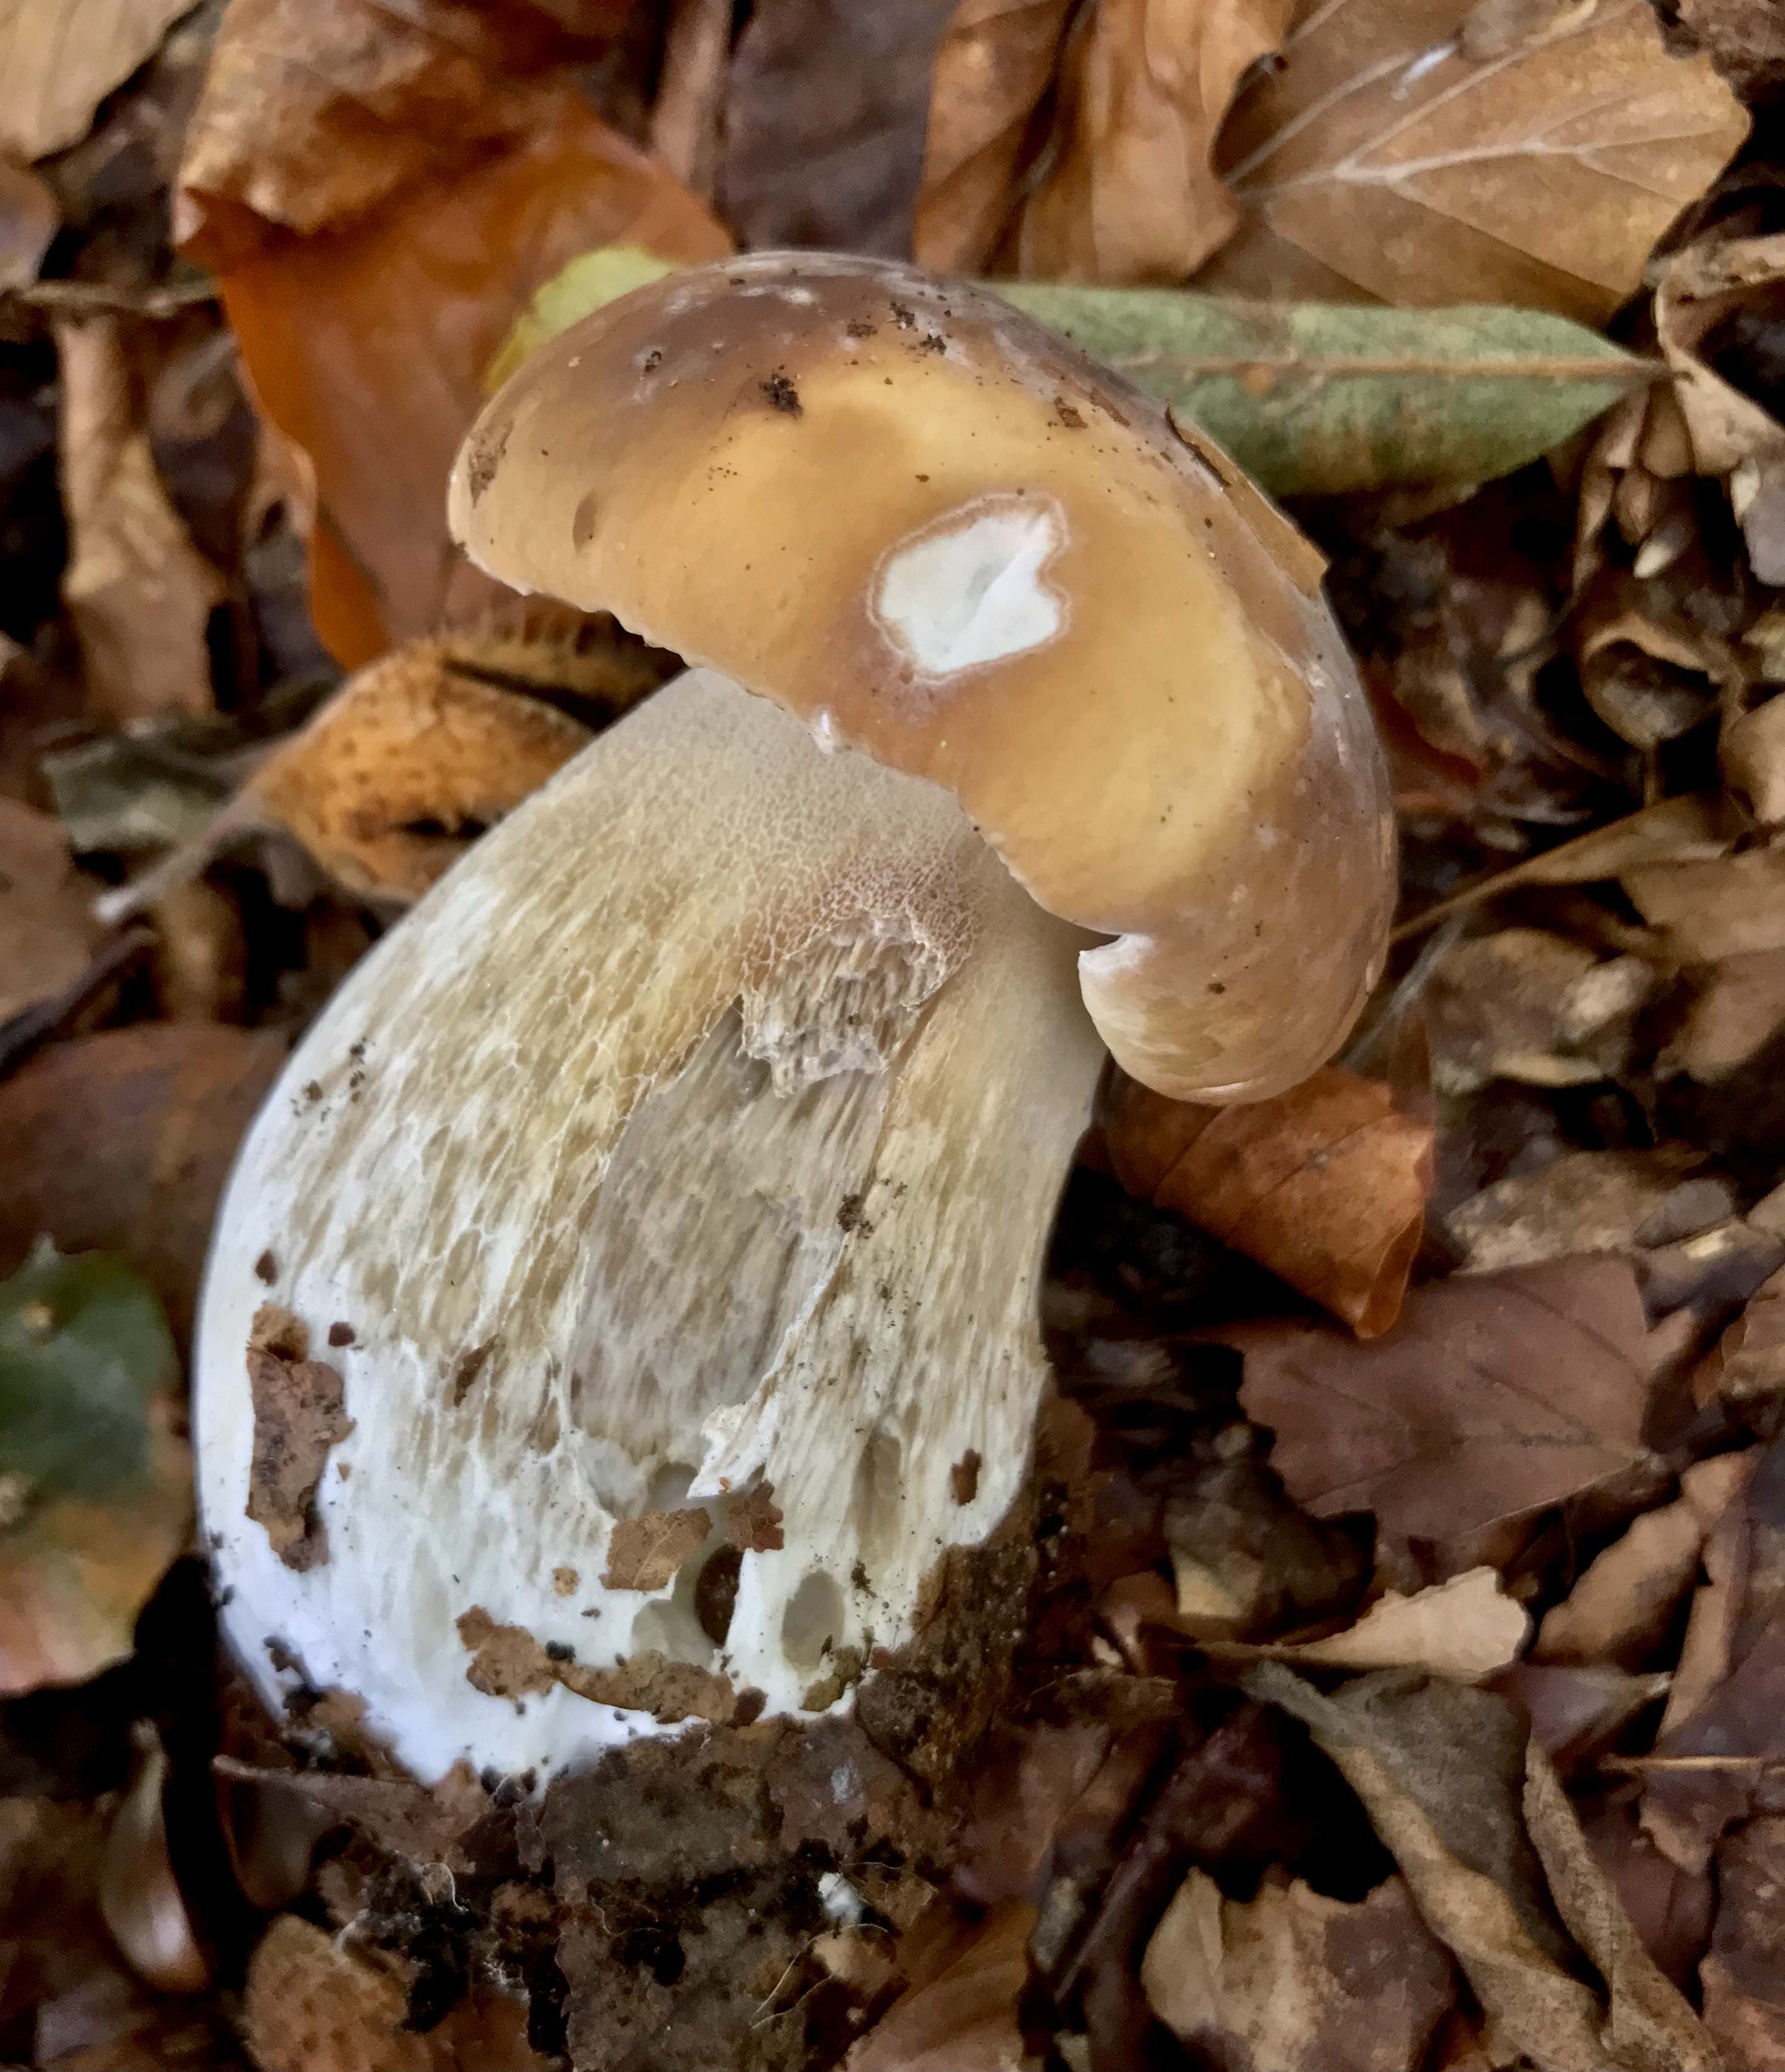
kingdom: Fungi
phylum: Basidiomycota
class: Agaricomycetes
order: Boletales
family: Boletaceae
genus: Boletus
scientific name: Boletus edulis
